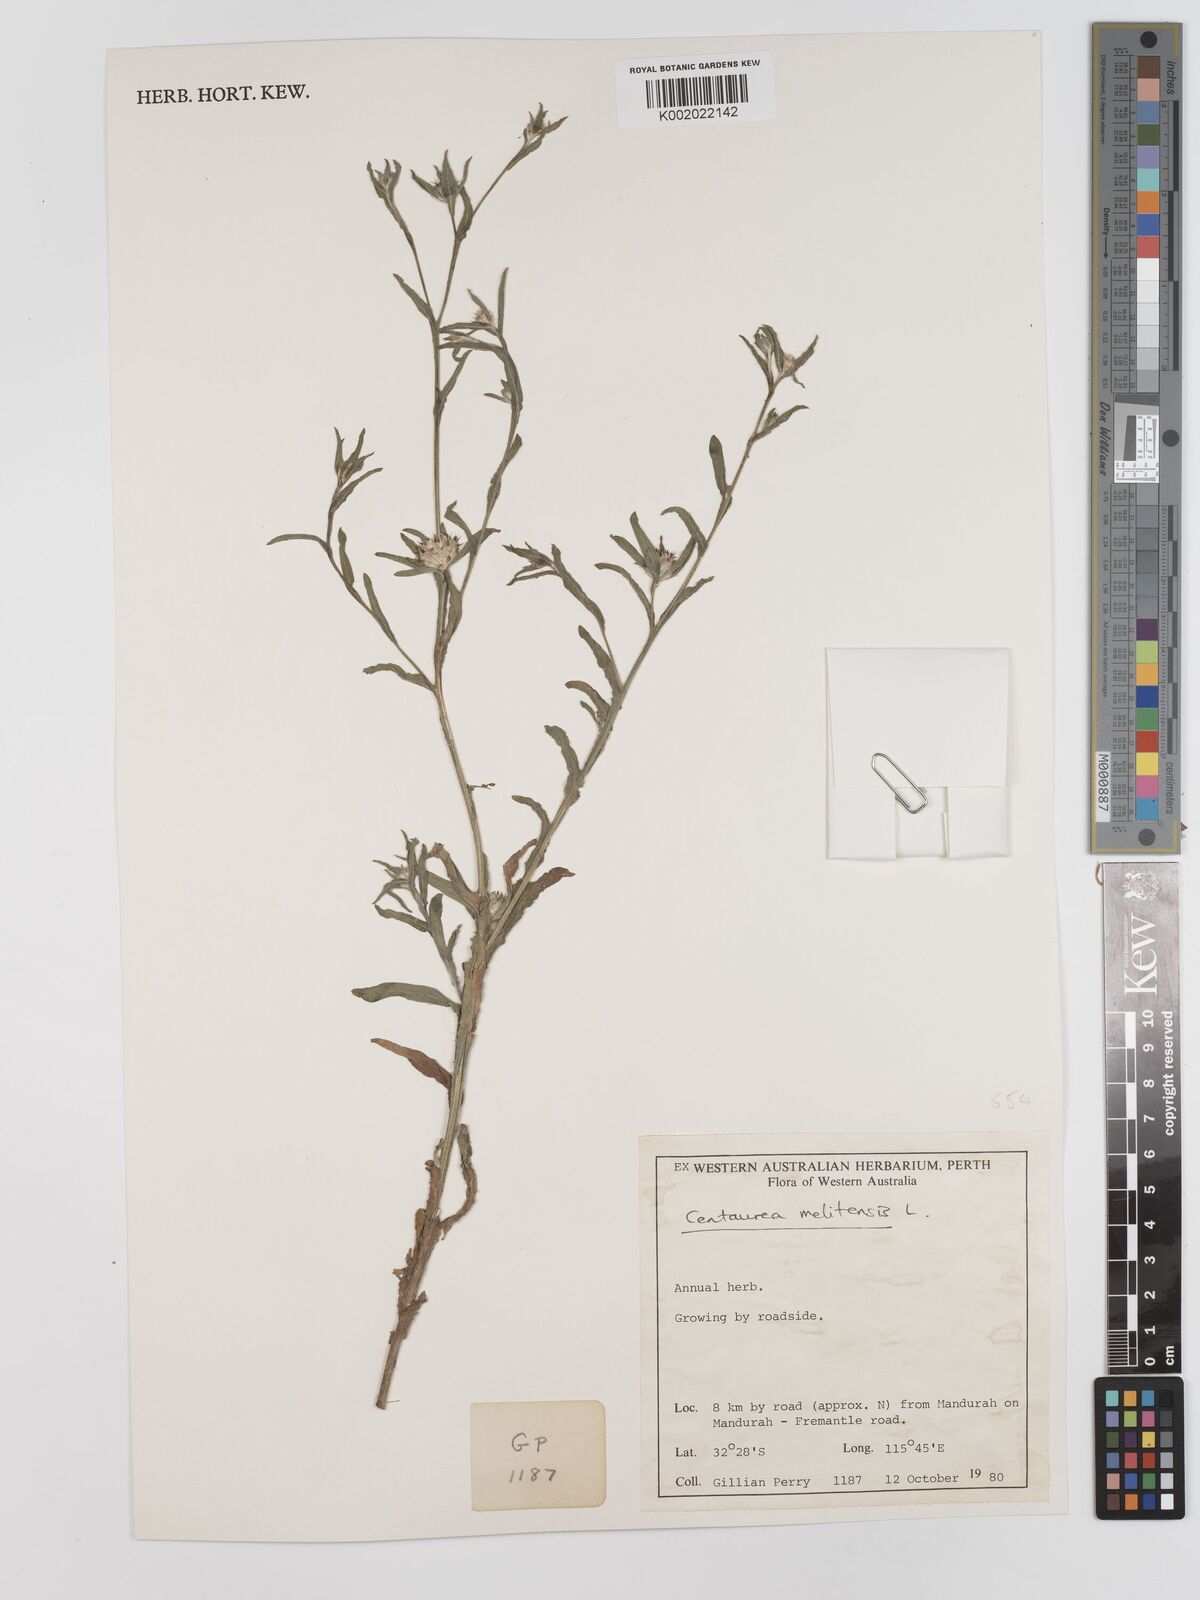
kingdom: Plantae
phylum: Tracheophyta
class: Magnoliopsida
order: Asterales
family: Asteraceae
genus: Centaurea
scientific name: Centaurea melitensis
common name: Maltese star-thistle
